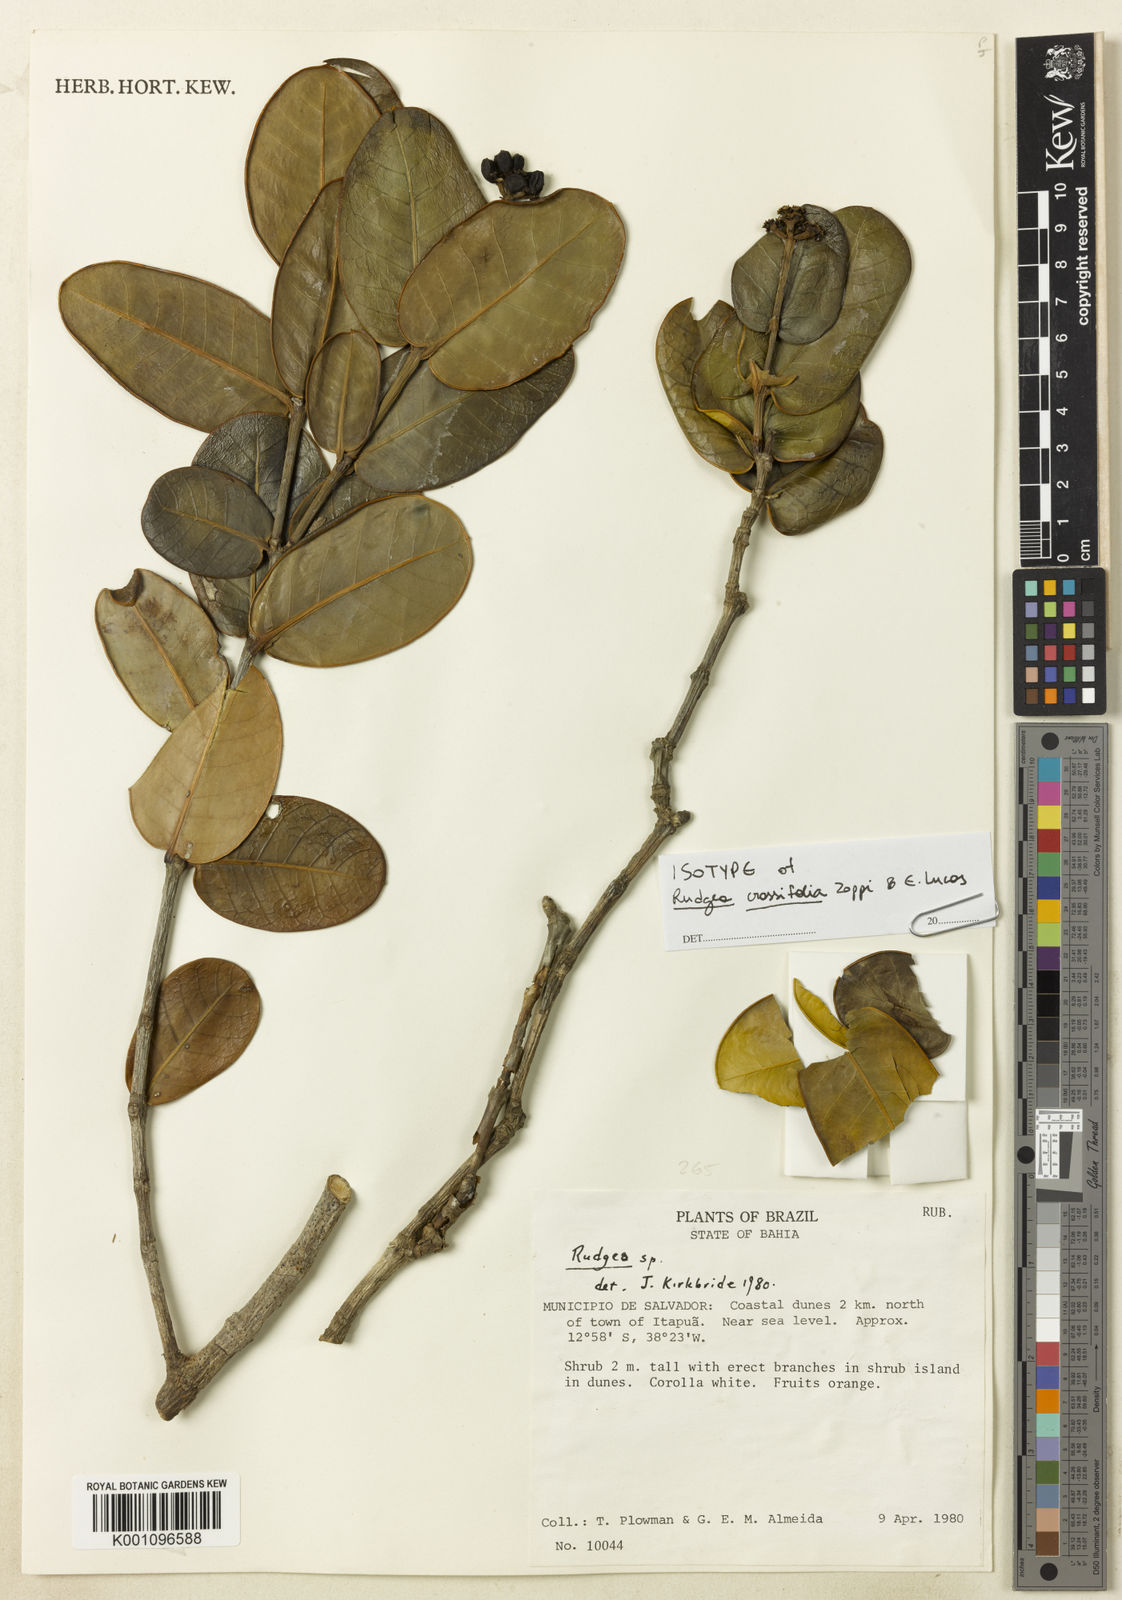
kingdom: Plantae
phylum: Tracheophyta
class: Magnoliopsida
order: Gentianales
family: Rubiaceae
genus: Rudgea
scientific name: Rudgea crassifolia
